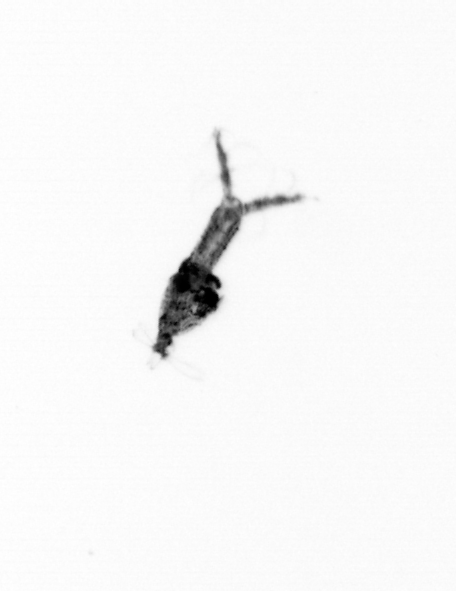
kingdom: Animalia
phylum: Arthropoda
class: Copepoda
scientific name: Copepoda
